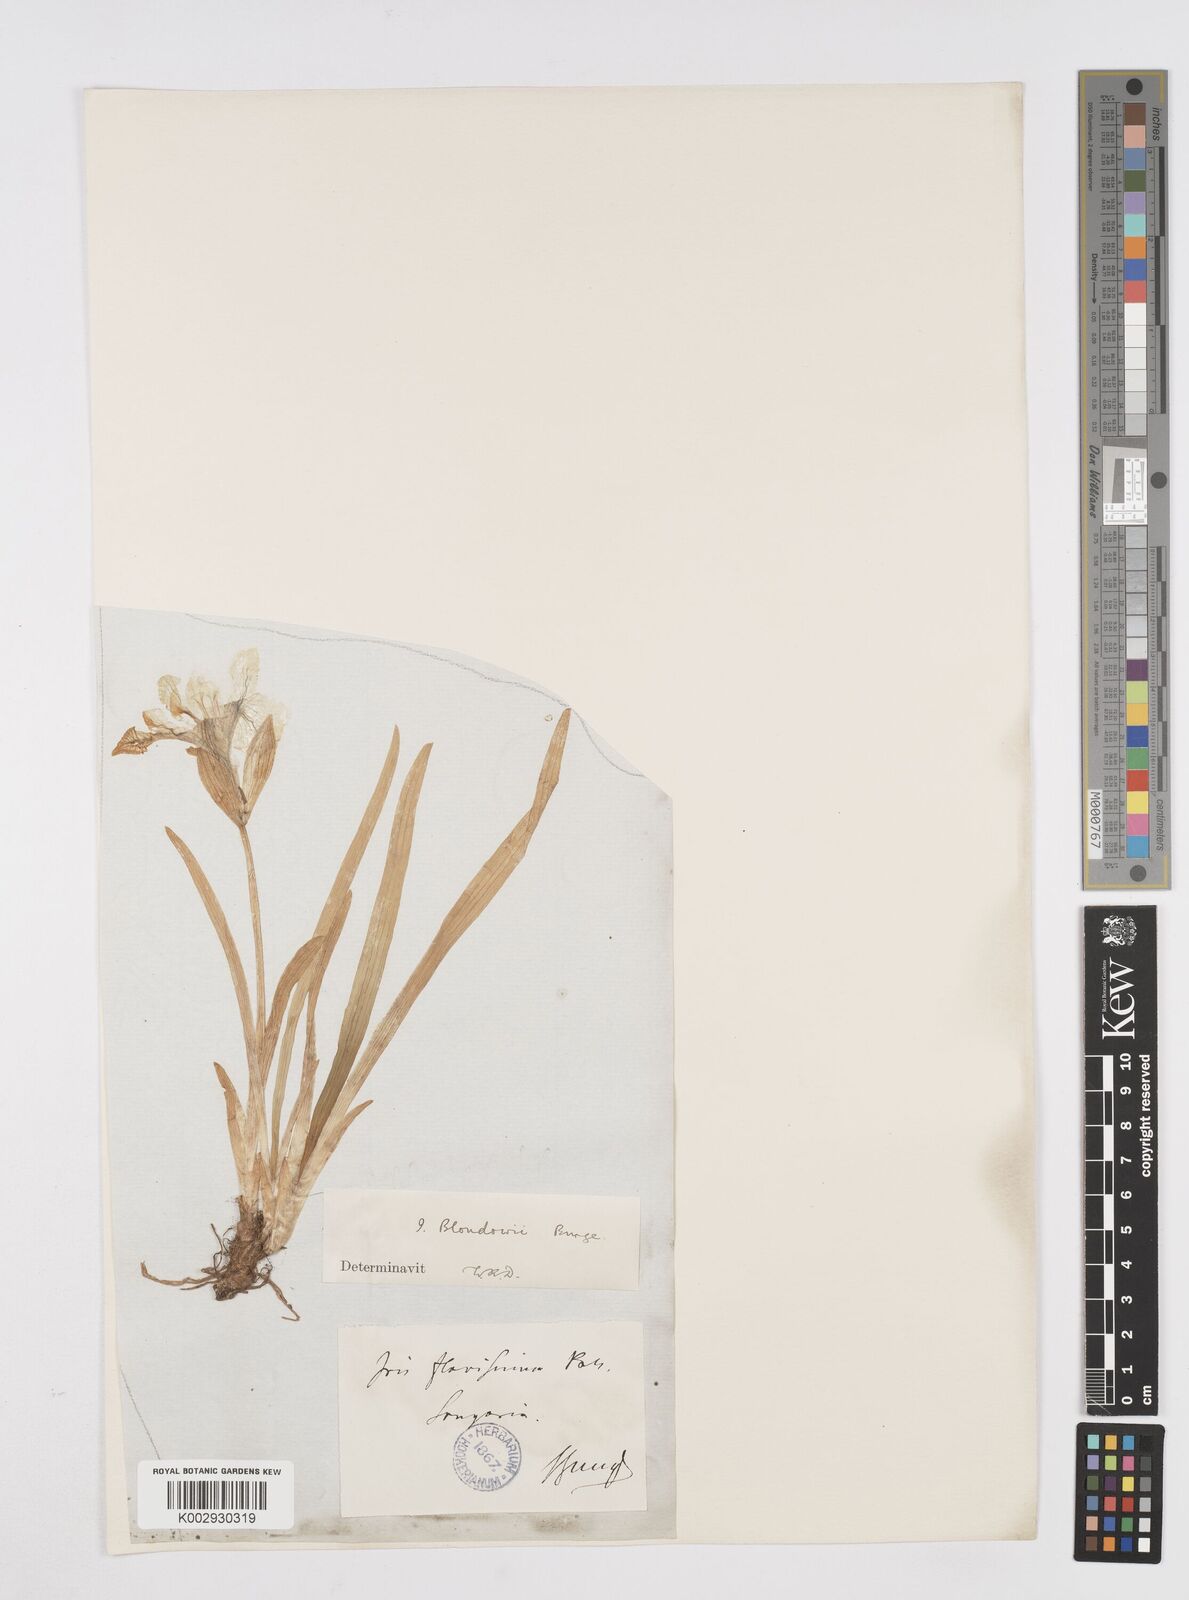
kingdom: Plantae
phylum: Tracheophyta
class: Liliopsida
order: Asparagales
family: Iridaceae
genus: Iris
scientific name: Iris bloudowii
